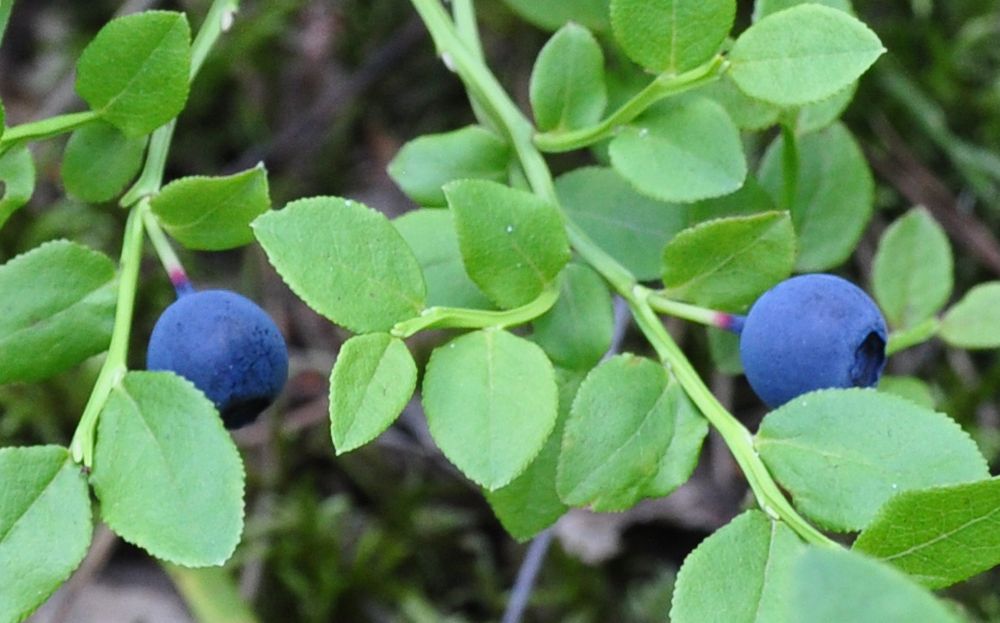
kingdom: Plantae
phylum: Tracheophyta
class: Magnoliopsida
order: Ericales
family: Ericaceae
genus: Vaccinium
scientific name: Vaccinium myrtillus
